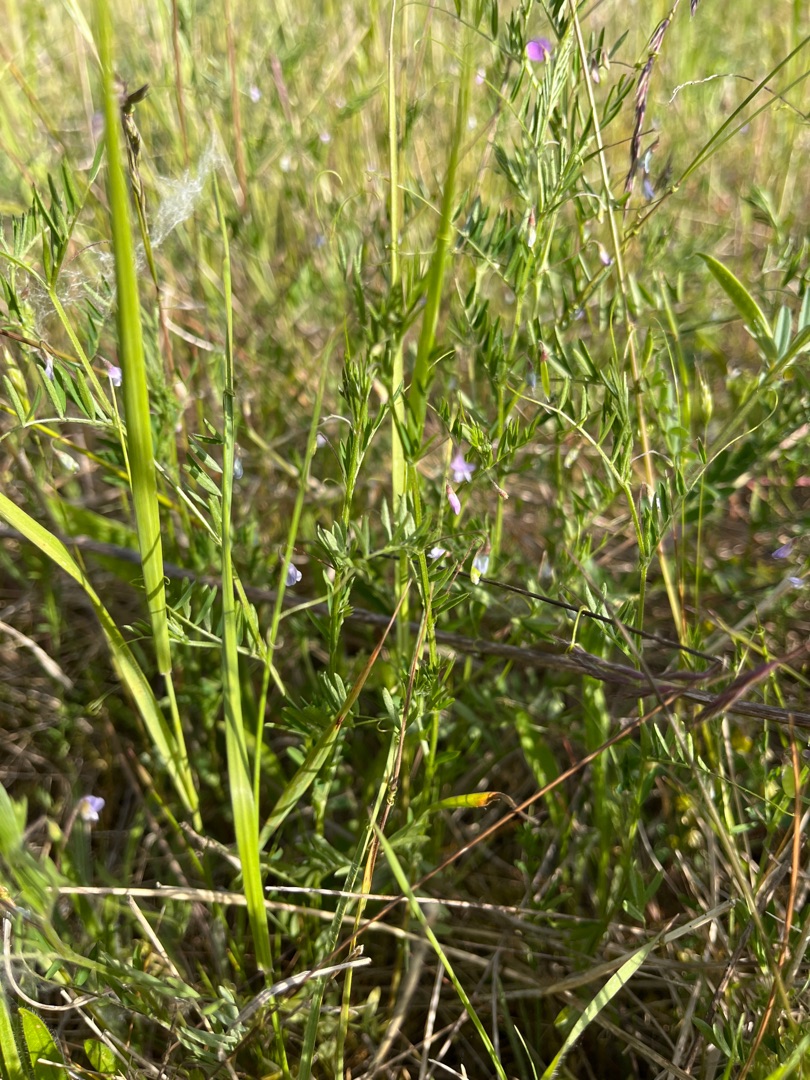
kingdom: Plantae
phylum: Tracheophyta
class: Magnoliopsida
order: Fabales
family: Fabaceae
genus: Vicia
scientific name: Vicia tetrasperma
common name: Tadder-vikke
